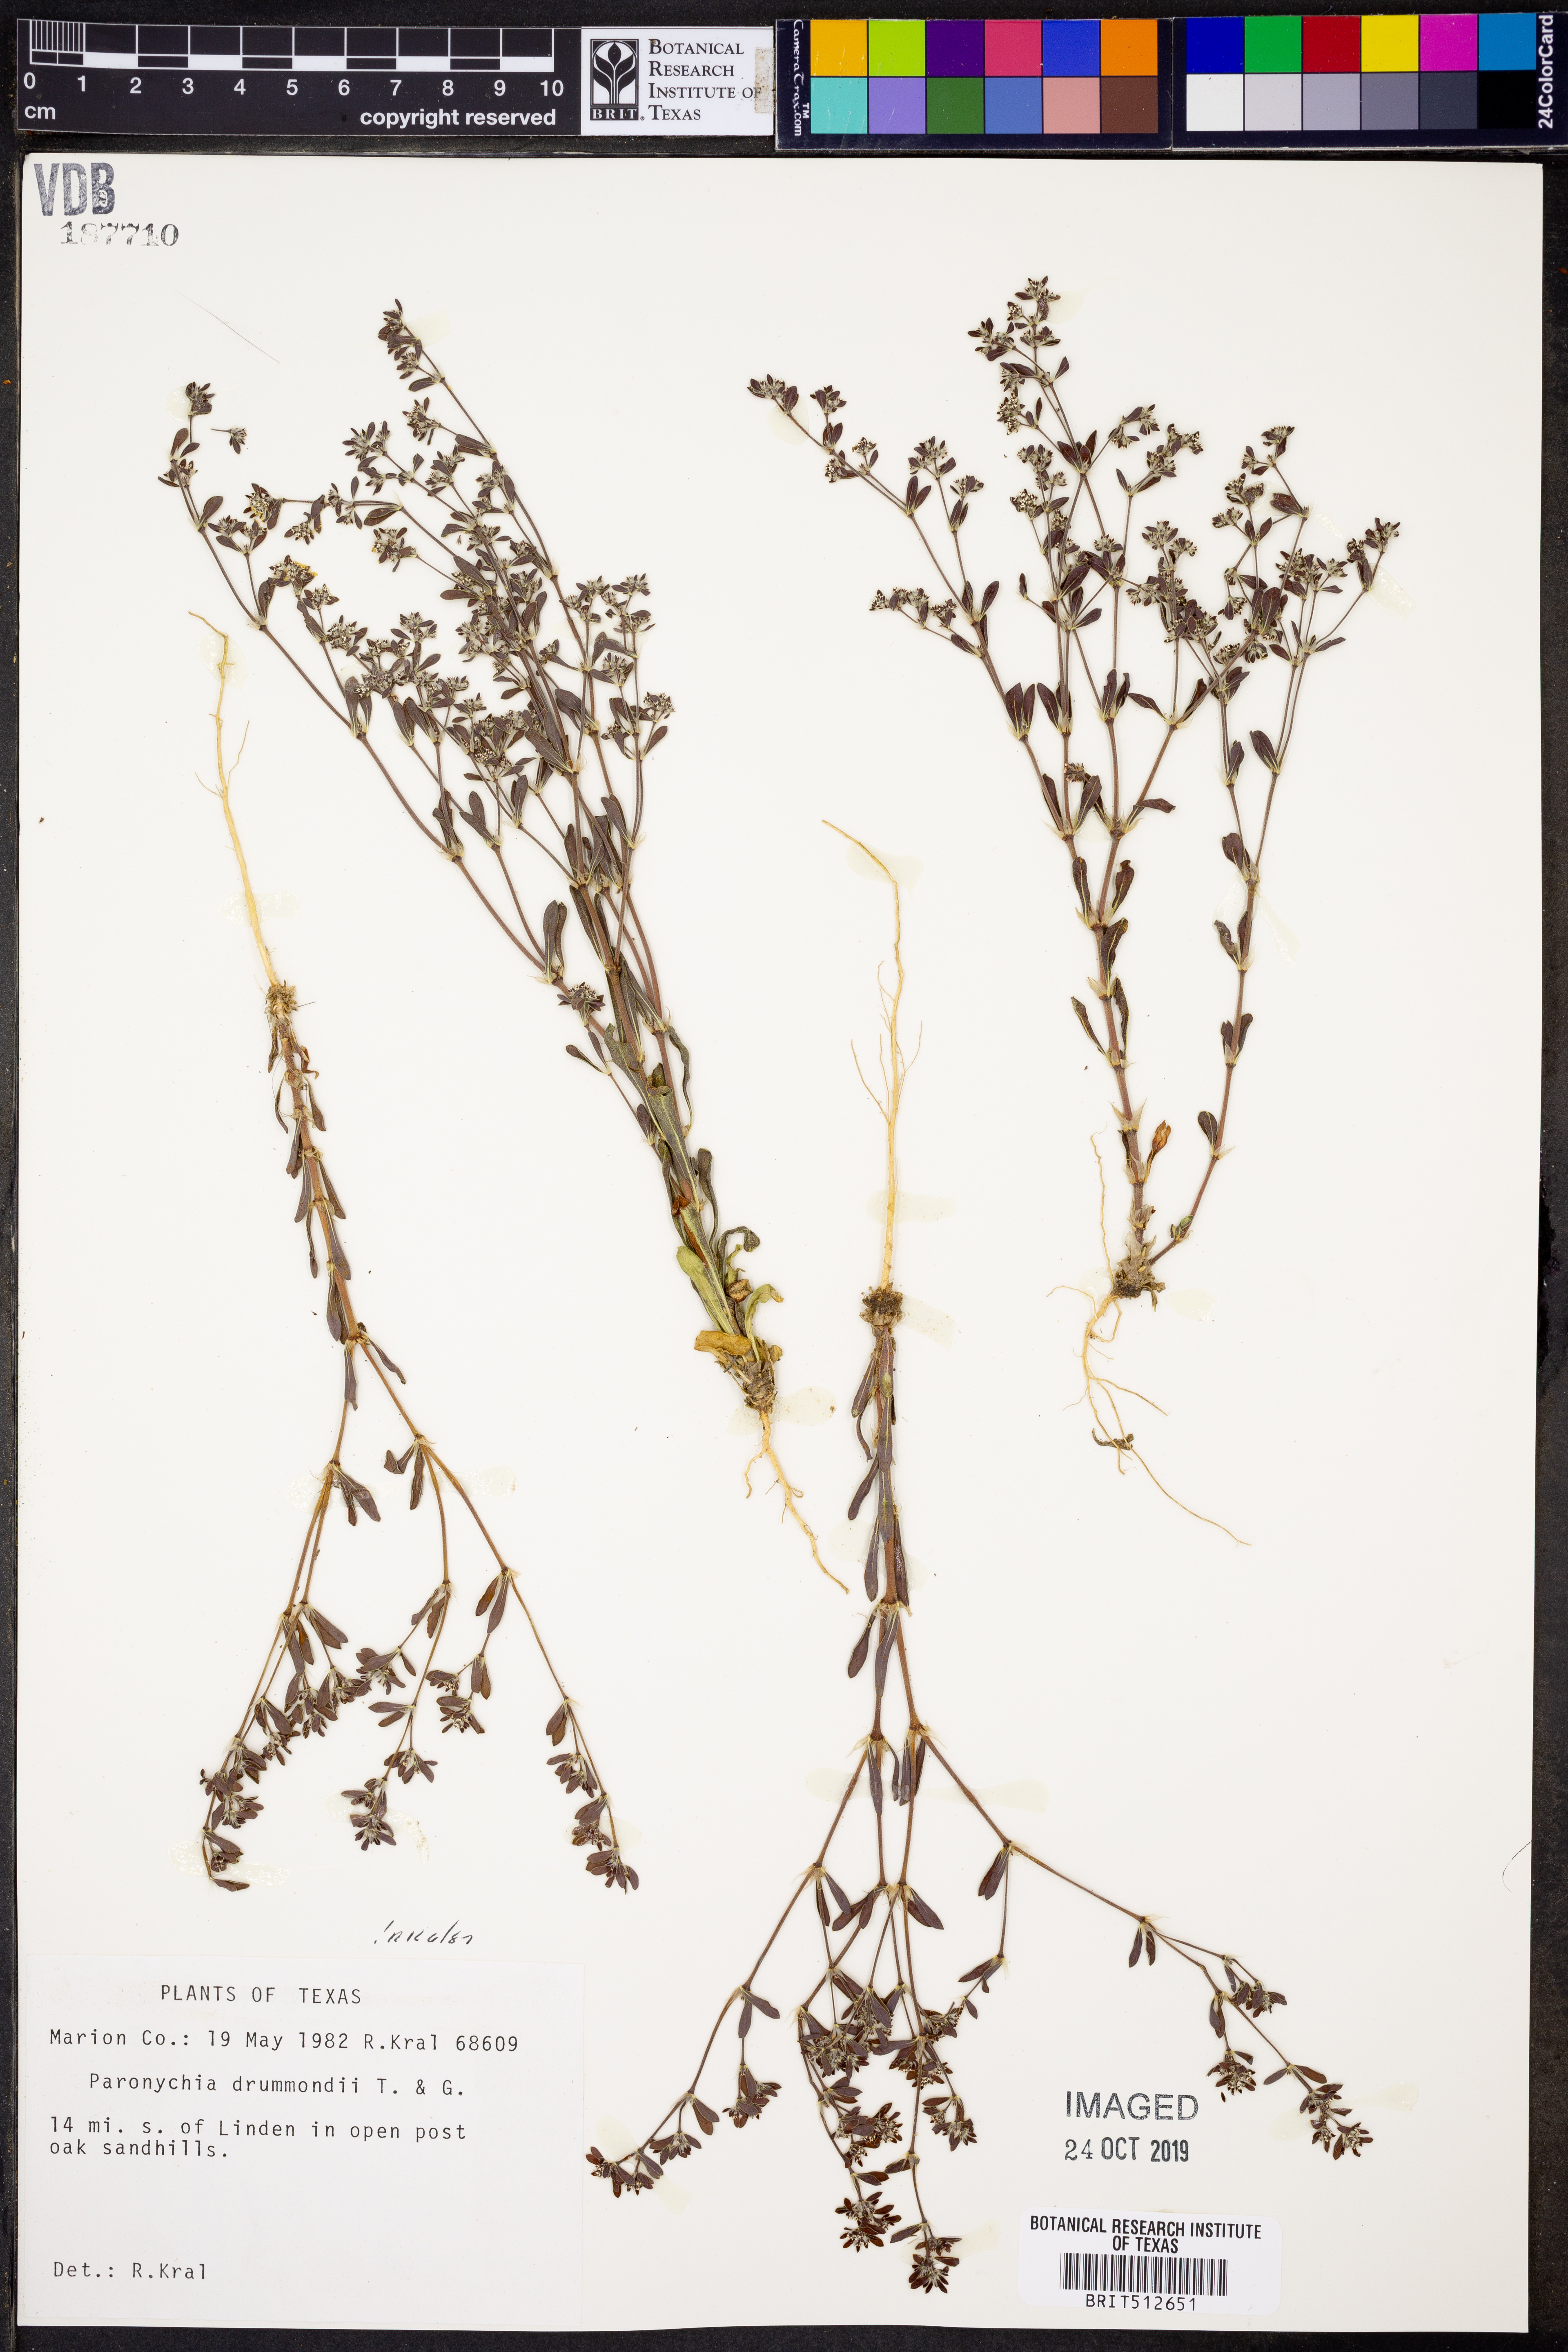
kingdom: Plantae
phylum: Tracheophyta
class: Magnoliopsida
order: Caryophyllales
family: Caryophyllaceae
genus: Paronychia
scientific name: Paronychia drummondii
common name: Drummond's nailwort
